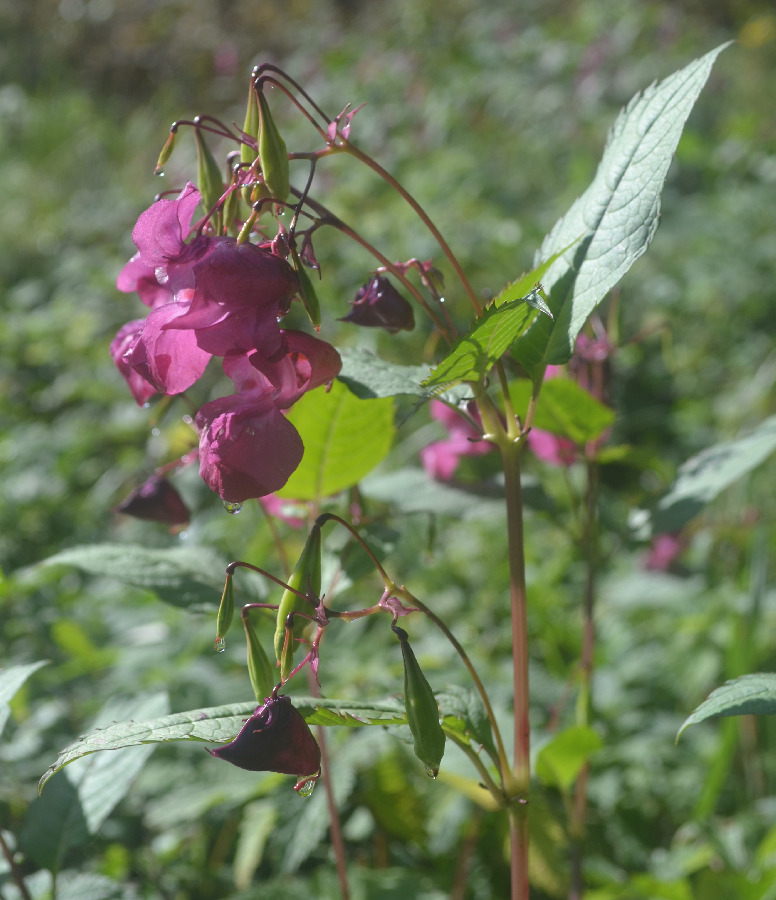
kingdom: Plantae
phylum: Tracheophyta
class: Magnoliopsida
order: Ericales
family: Balsaminaceae
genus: Impatiens
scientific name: Impatiens glandulifera
